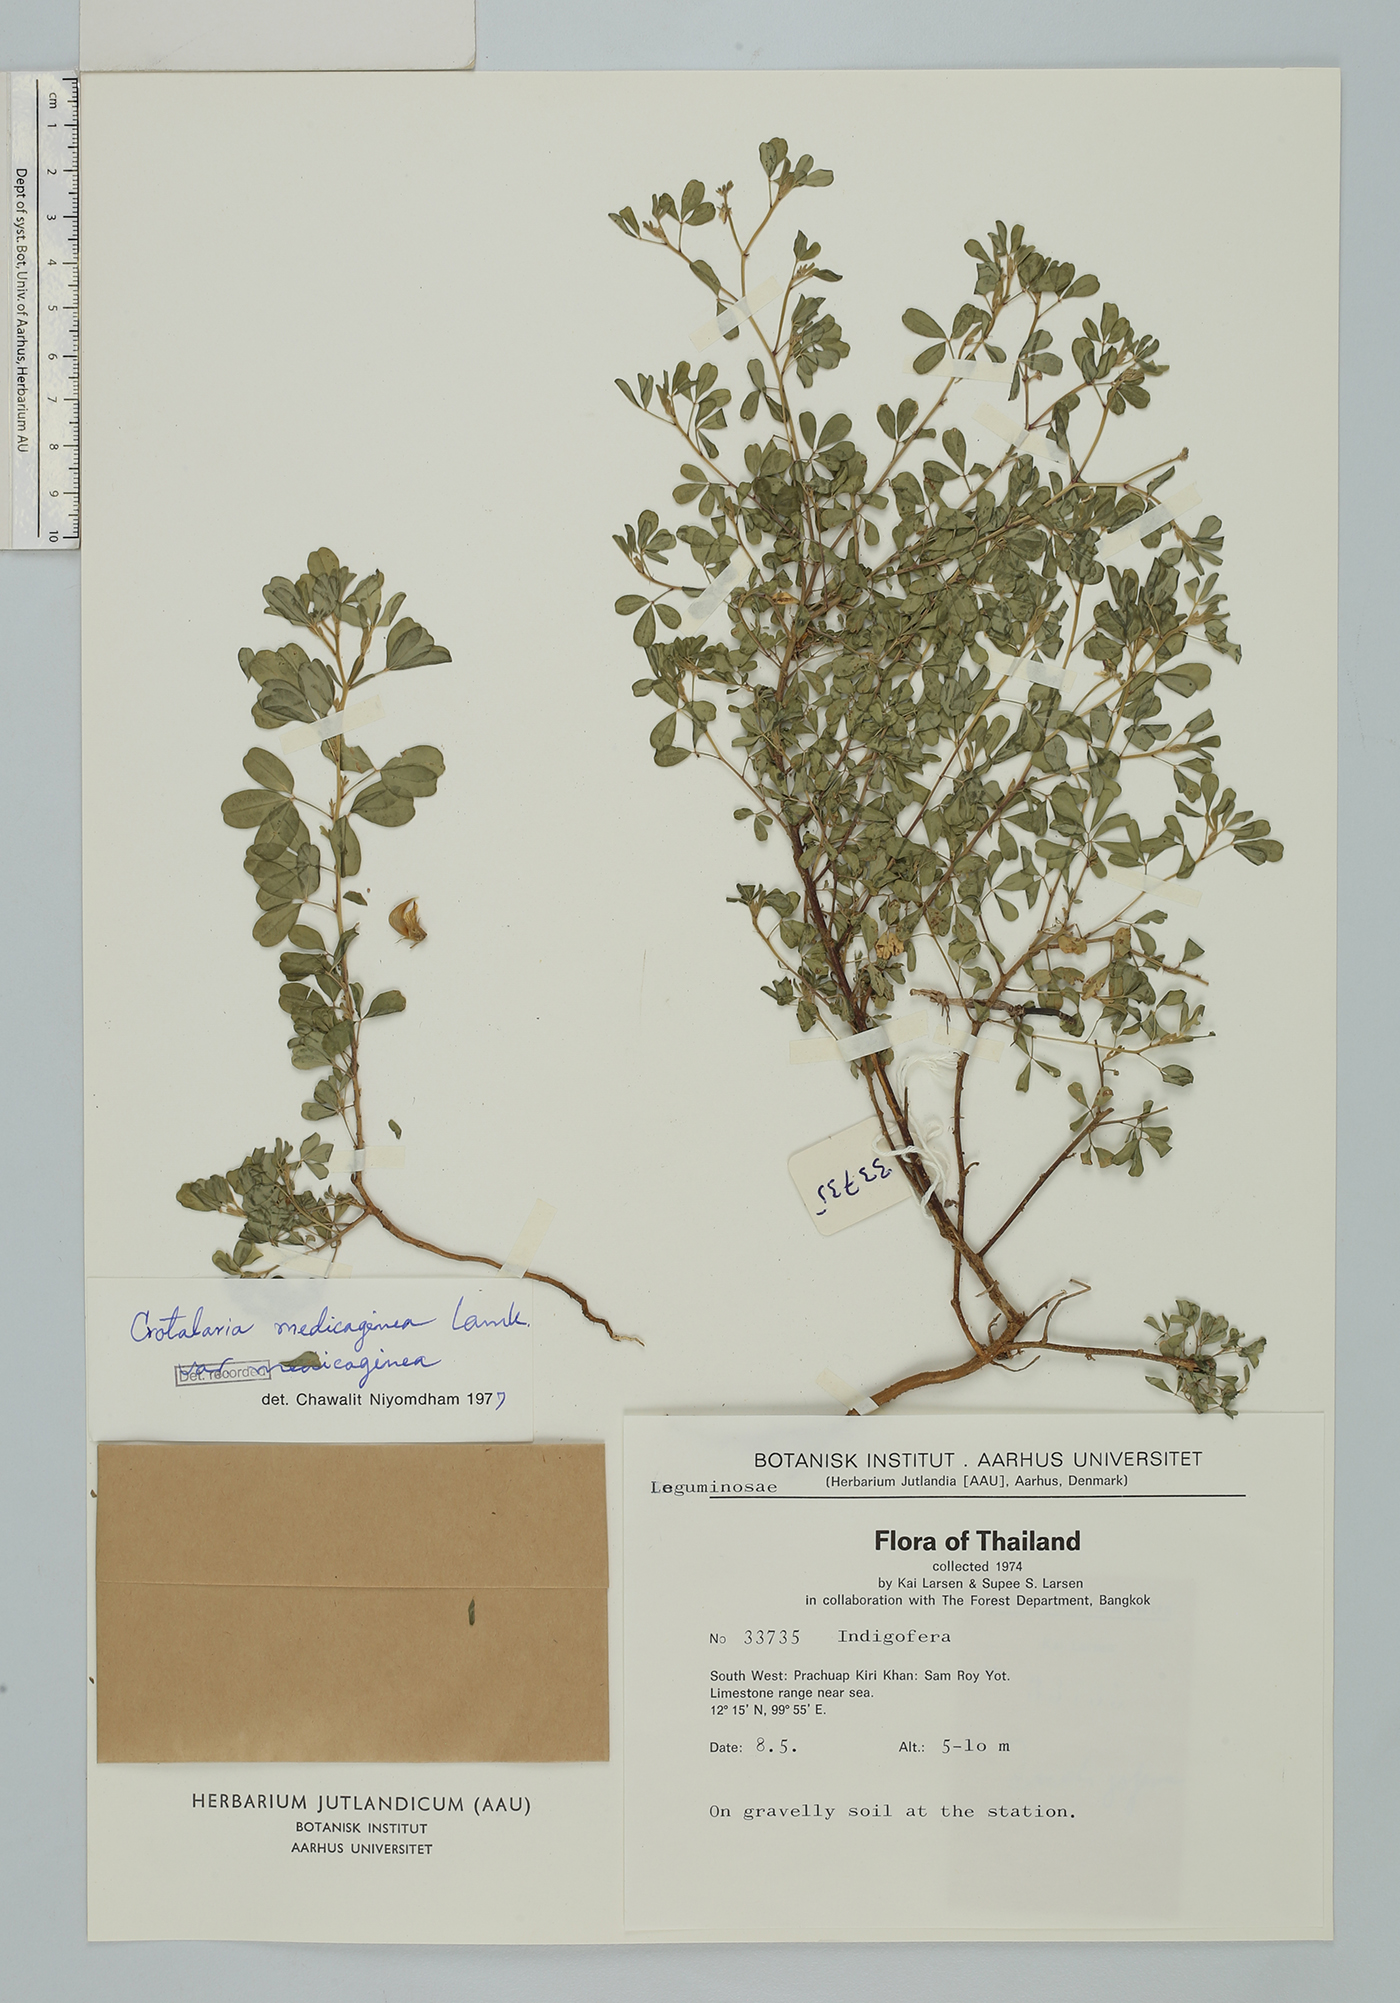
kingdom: Plantae
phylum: Tracheophyta
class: Magnoliopsida
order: Fabales
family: Fabaceae
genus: Crotalaria
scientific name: Crotalaria medicaginea
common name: Trefoil rattlepod
